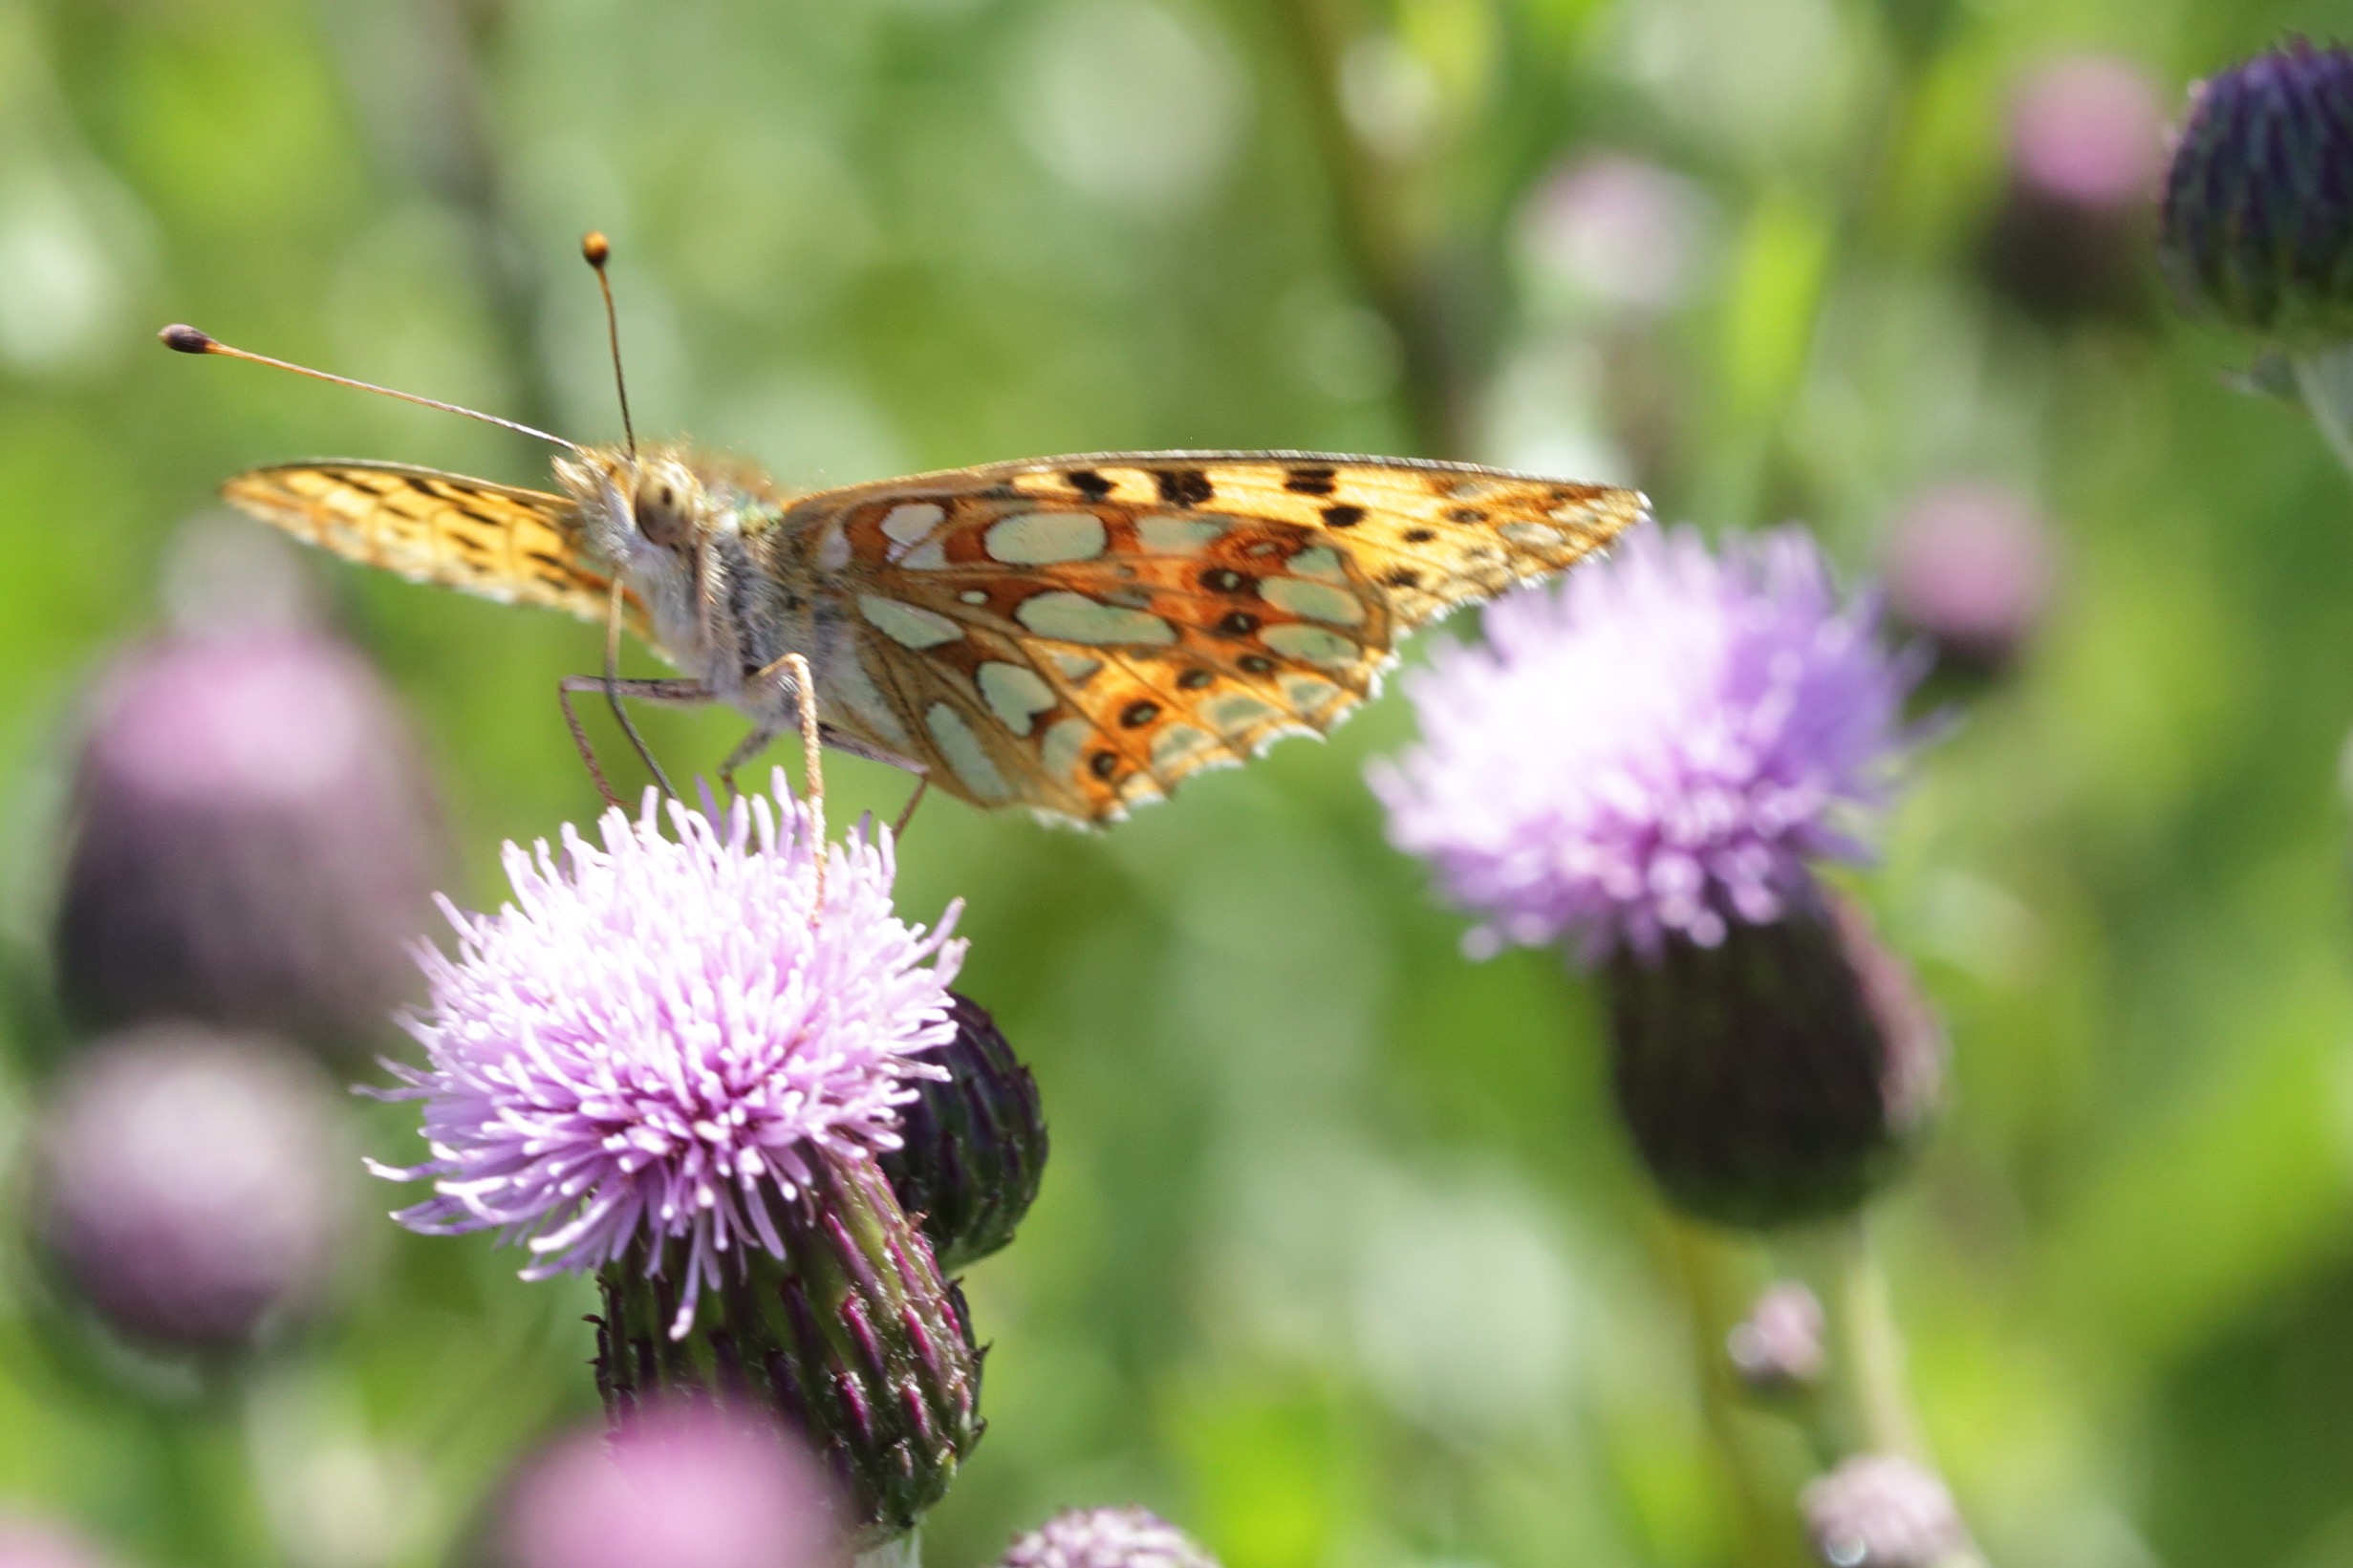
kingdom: Animalia
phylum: Arthropoda
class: Insecta
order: Lepidoptera
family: Nymphalidae
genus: Issoria
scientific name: Issoria lathonia
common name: Storplettet perlemorsommerfugl
